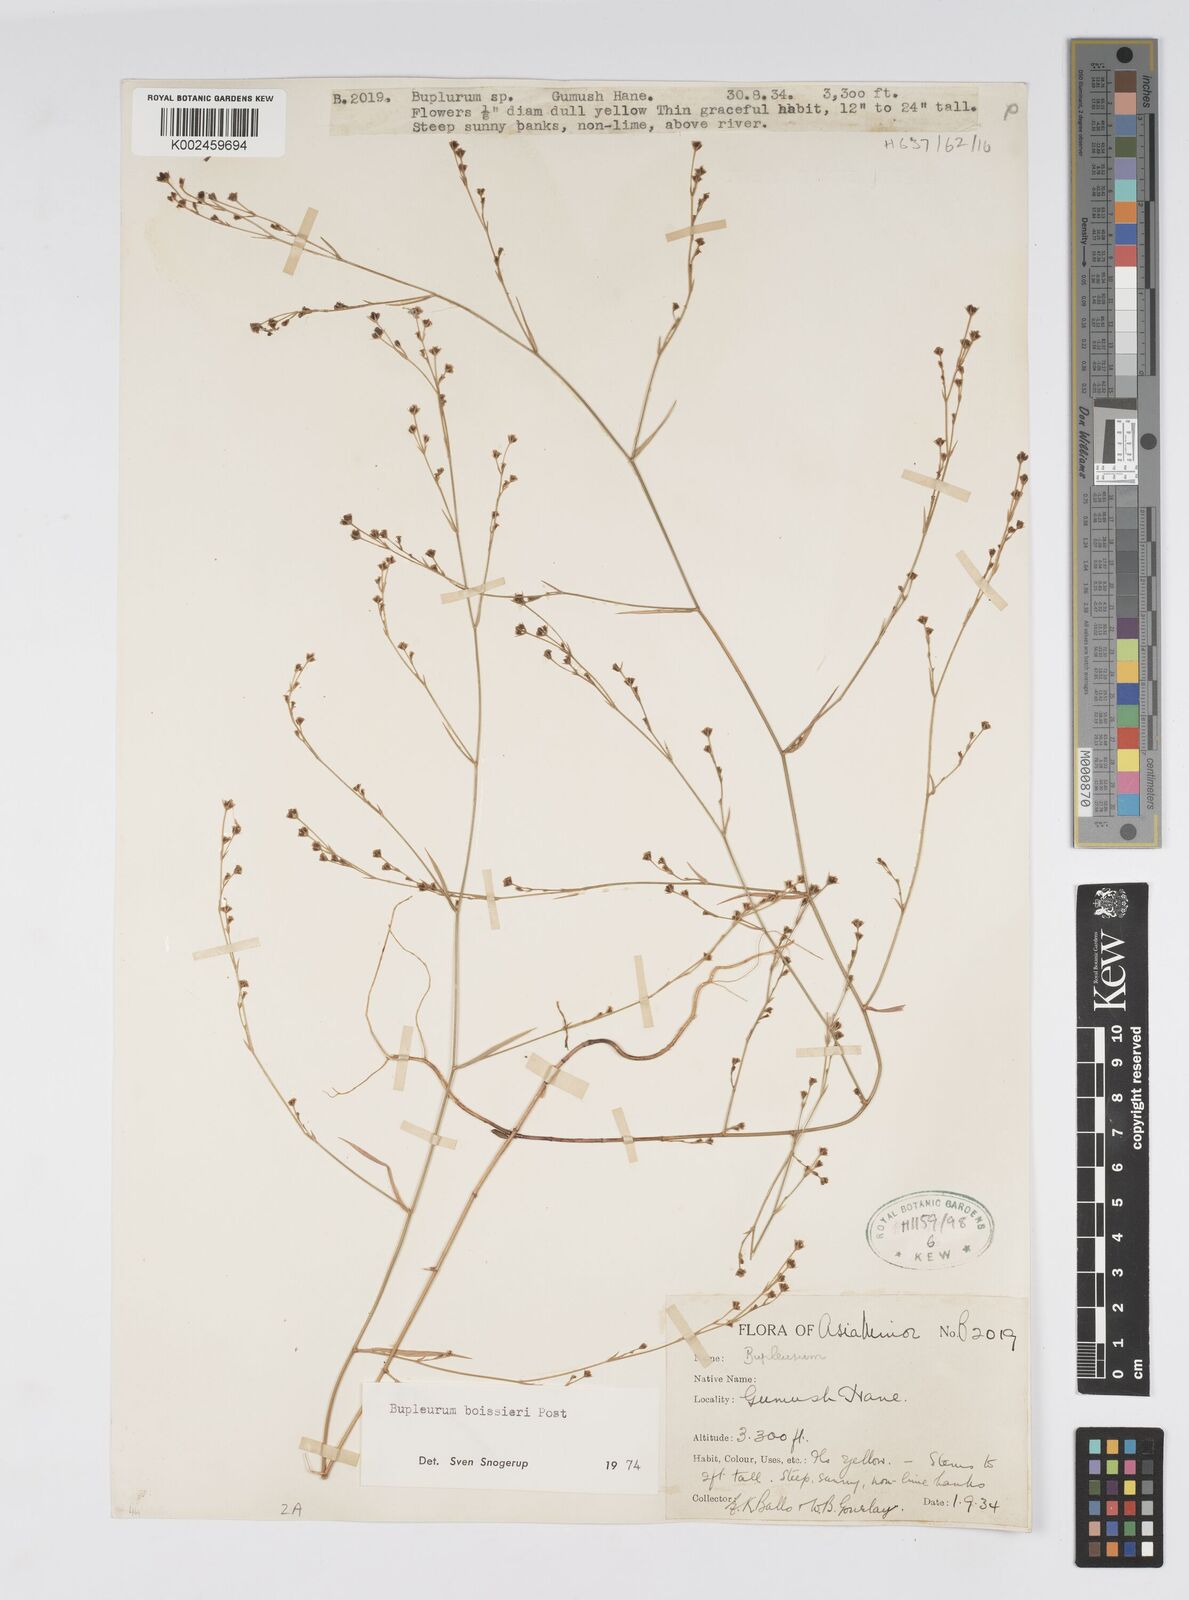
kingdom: Plantae
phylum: Tracheophyta
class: Magnoliopsida
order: Apiales
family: Apiaceae
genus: Bupleurum
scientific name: Bupleurum boissieri
